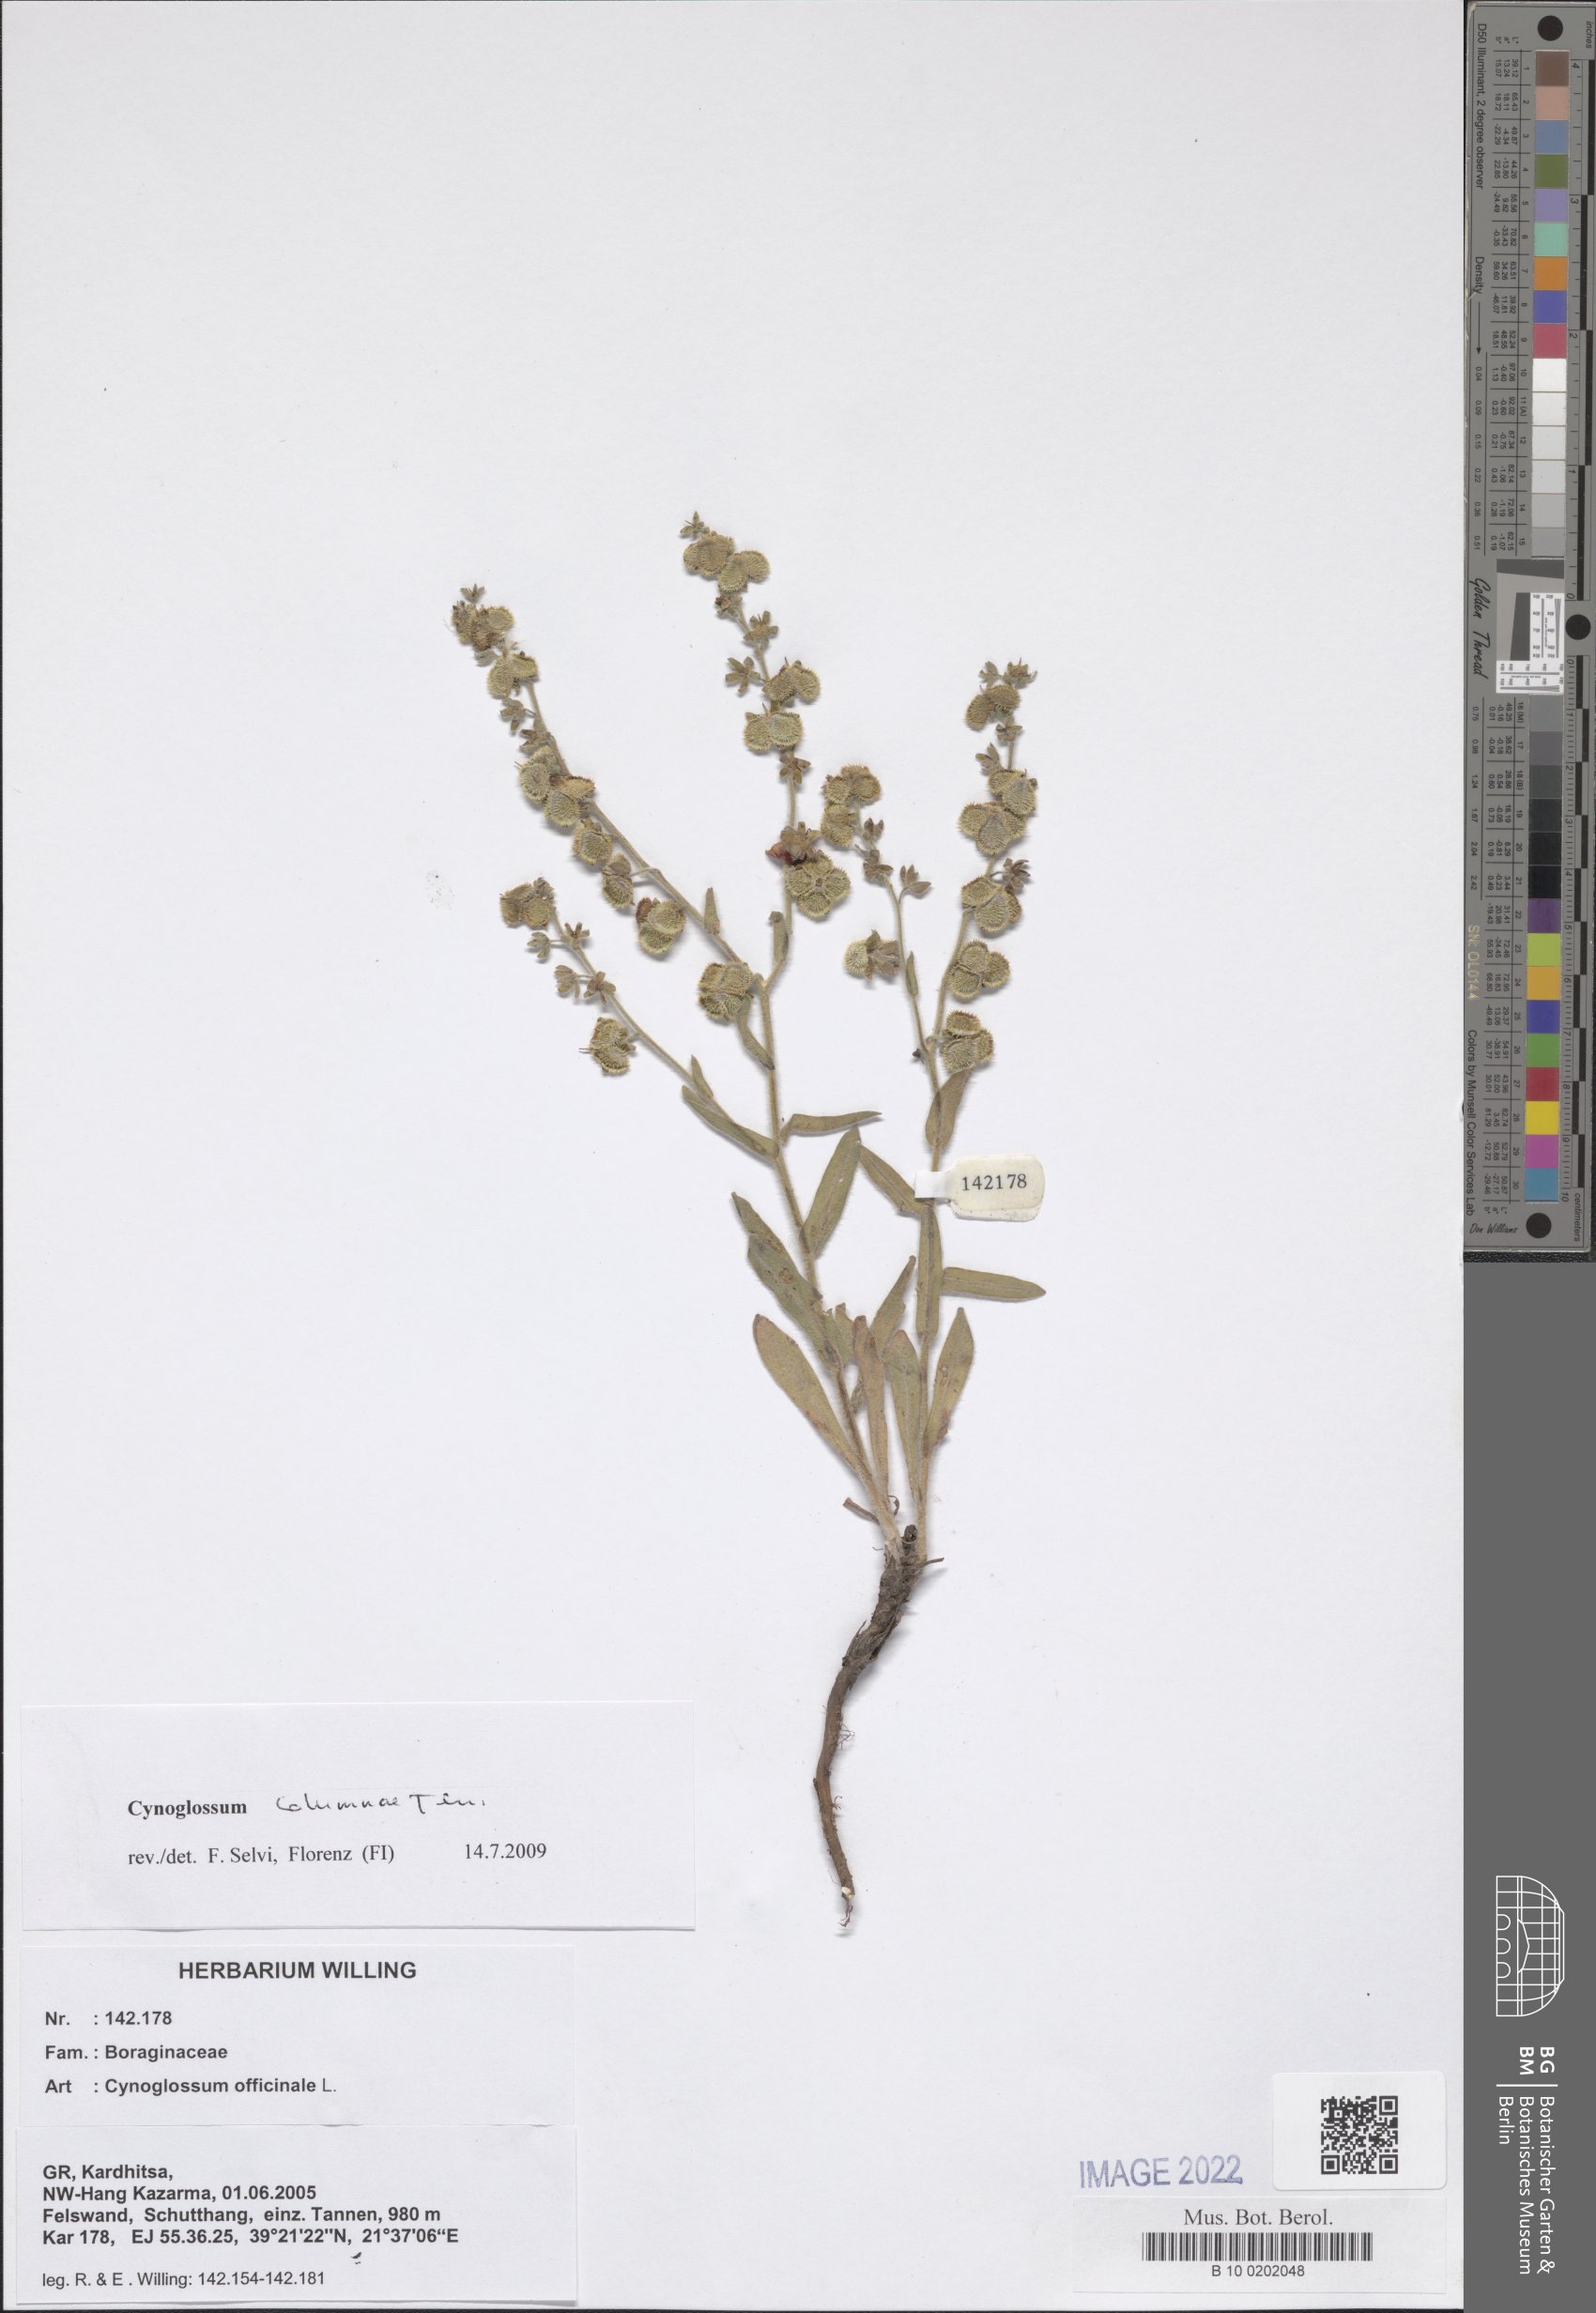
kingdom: Plantae
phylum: Tracheophyta
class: Magnoliopsida
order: Boraginales
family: Boraginaceae
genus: Rindera
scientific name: Rindera columnae
